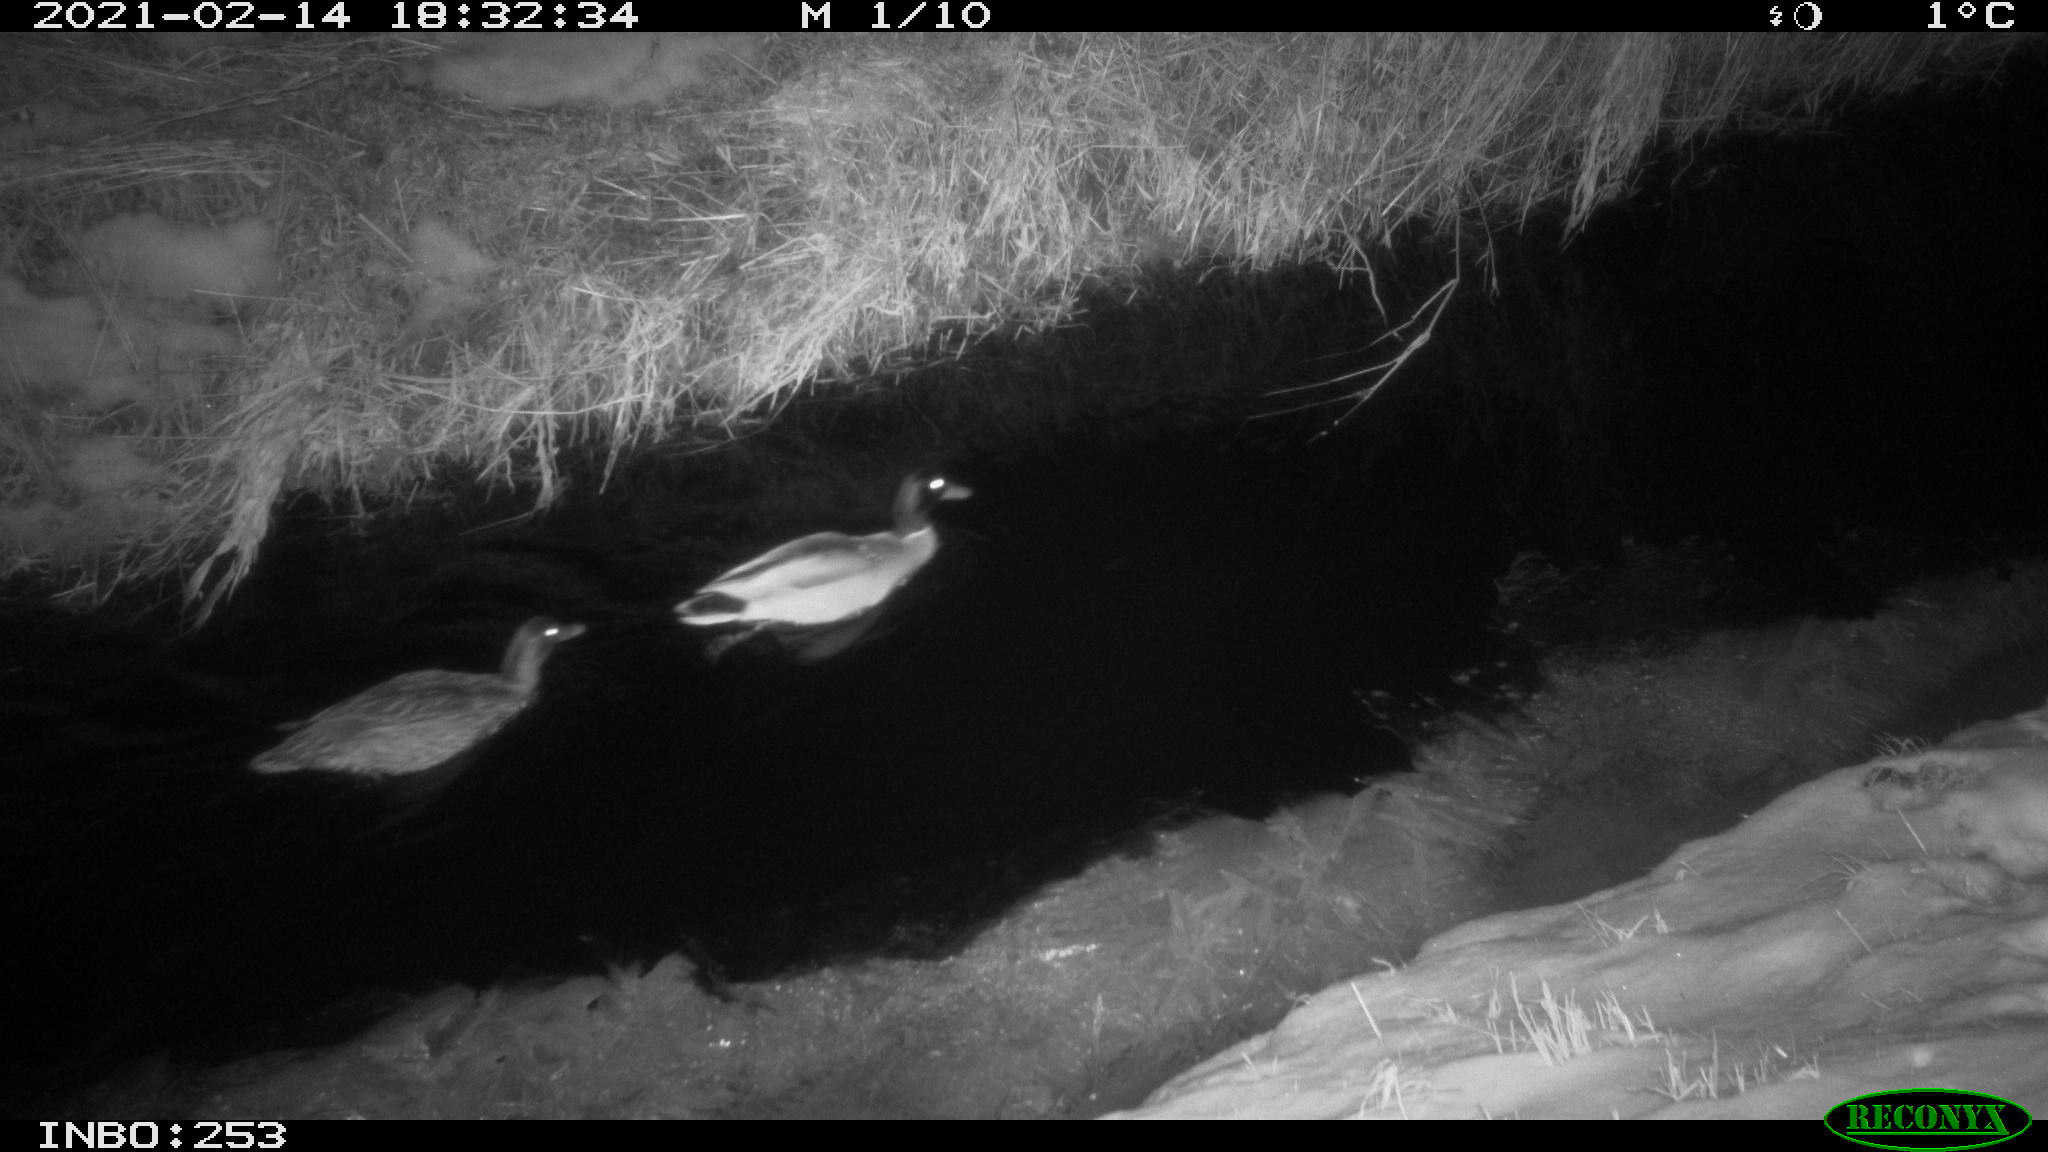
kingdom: Animalia
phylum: Chordata
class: Aves
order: Anseriformes
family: Anatidae
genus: Anas
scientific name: Anas platyrhynchos
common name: Mallard
